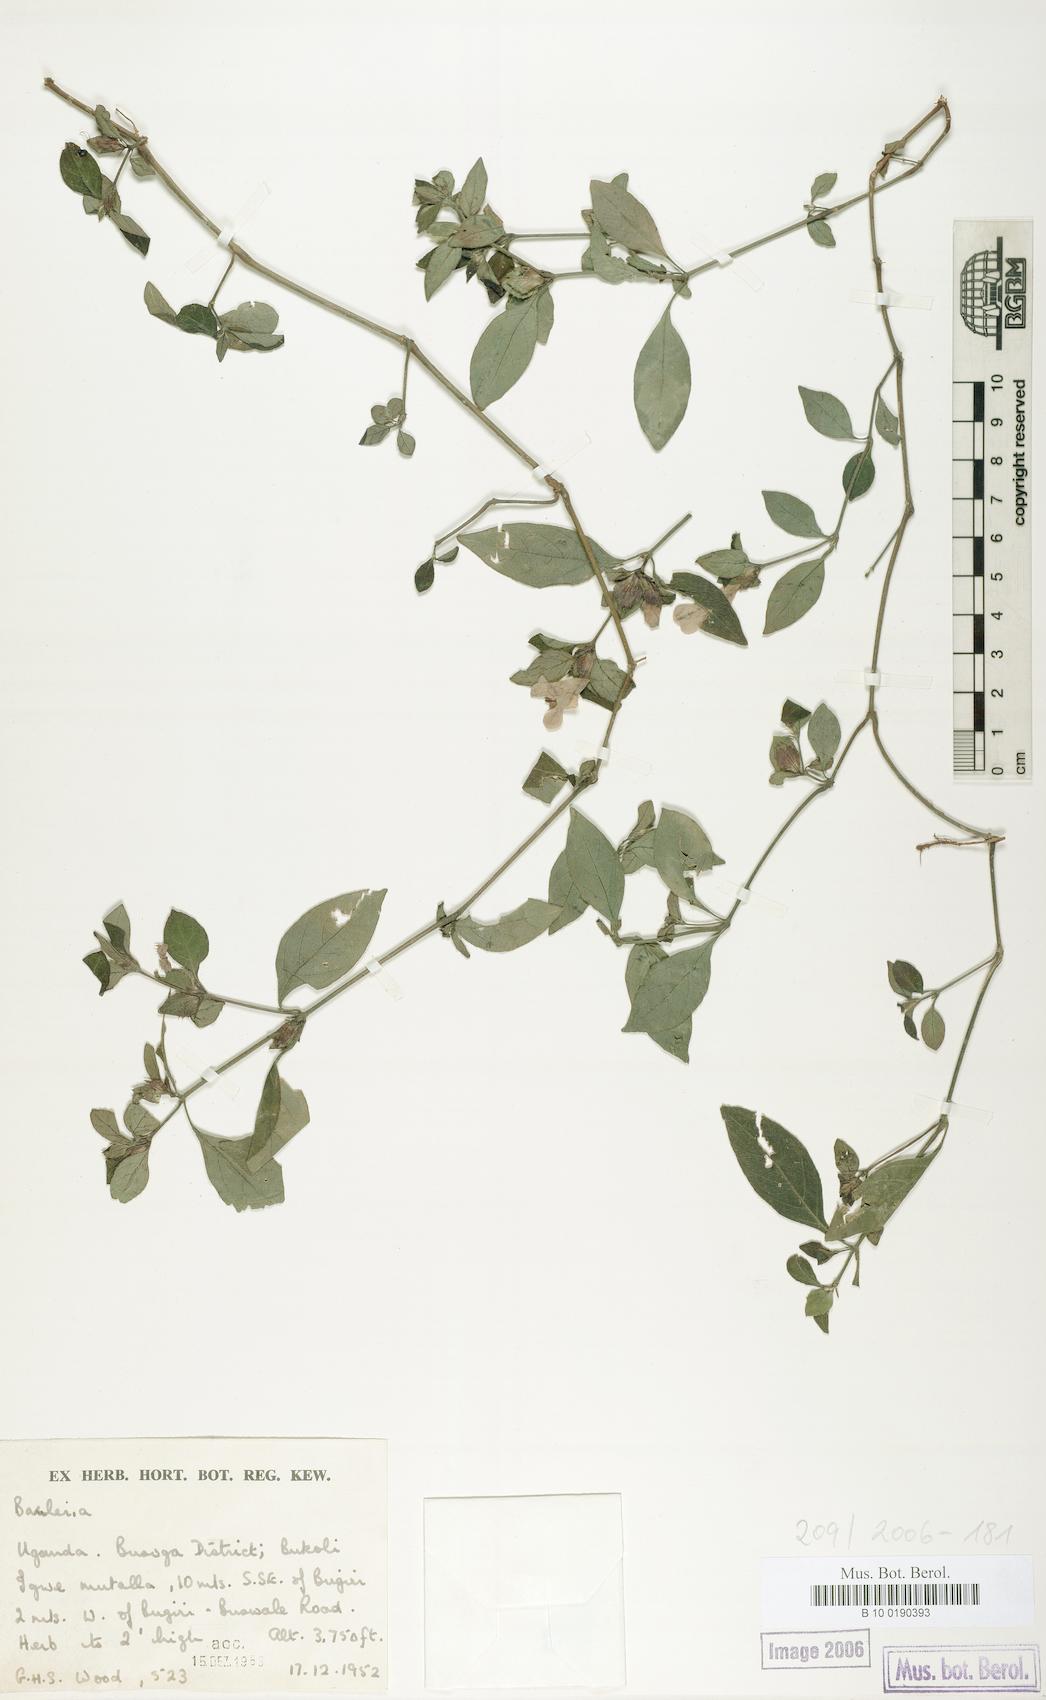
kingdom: Plantae
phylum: Tracheophyta
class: Magnoliopsida
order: Lamiales
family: Acanthaceae
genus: Barleria
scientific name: Barleria ventricosa
